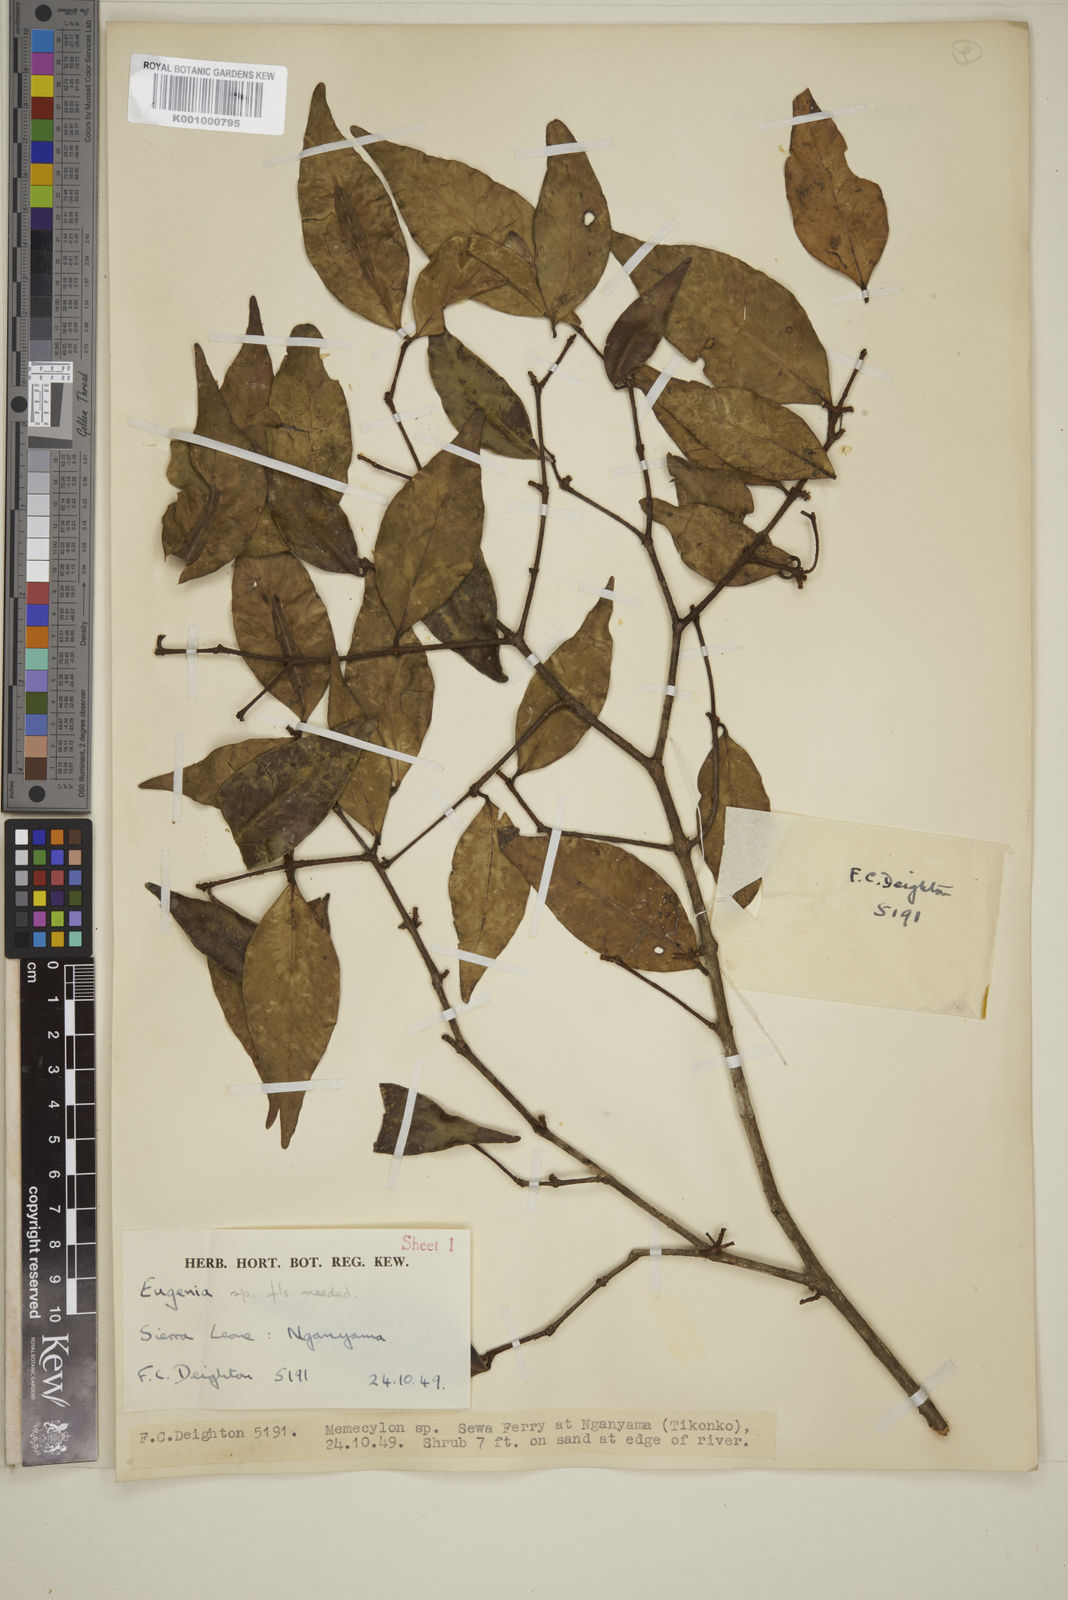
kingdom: Plantae
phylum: Tracheophyta
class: Magnoliopsida
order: Myrtales
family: Myrtaceae
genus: Eugenia
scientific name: Eugenia
